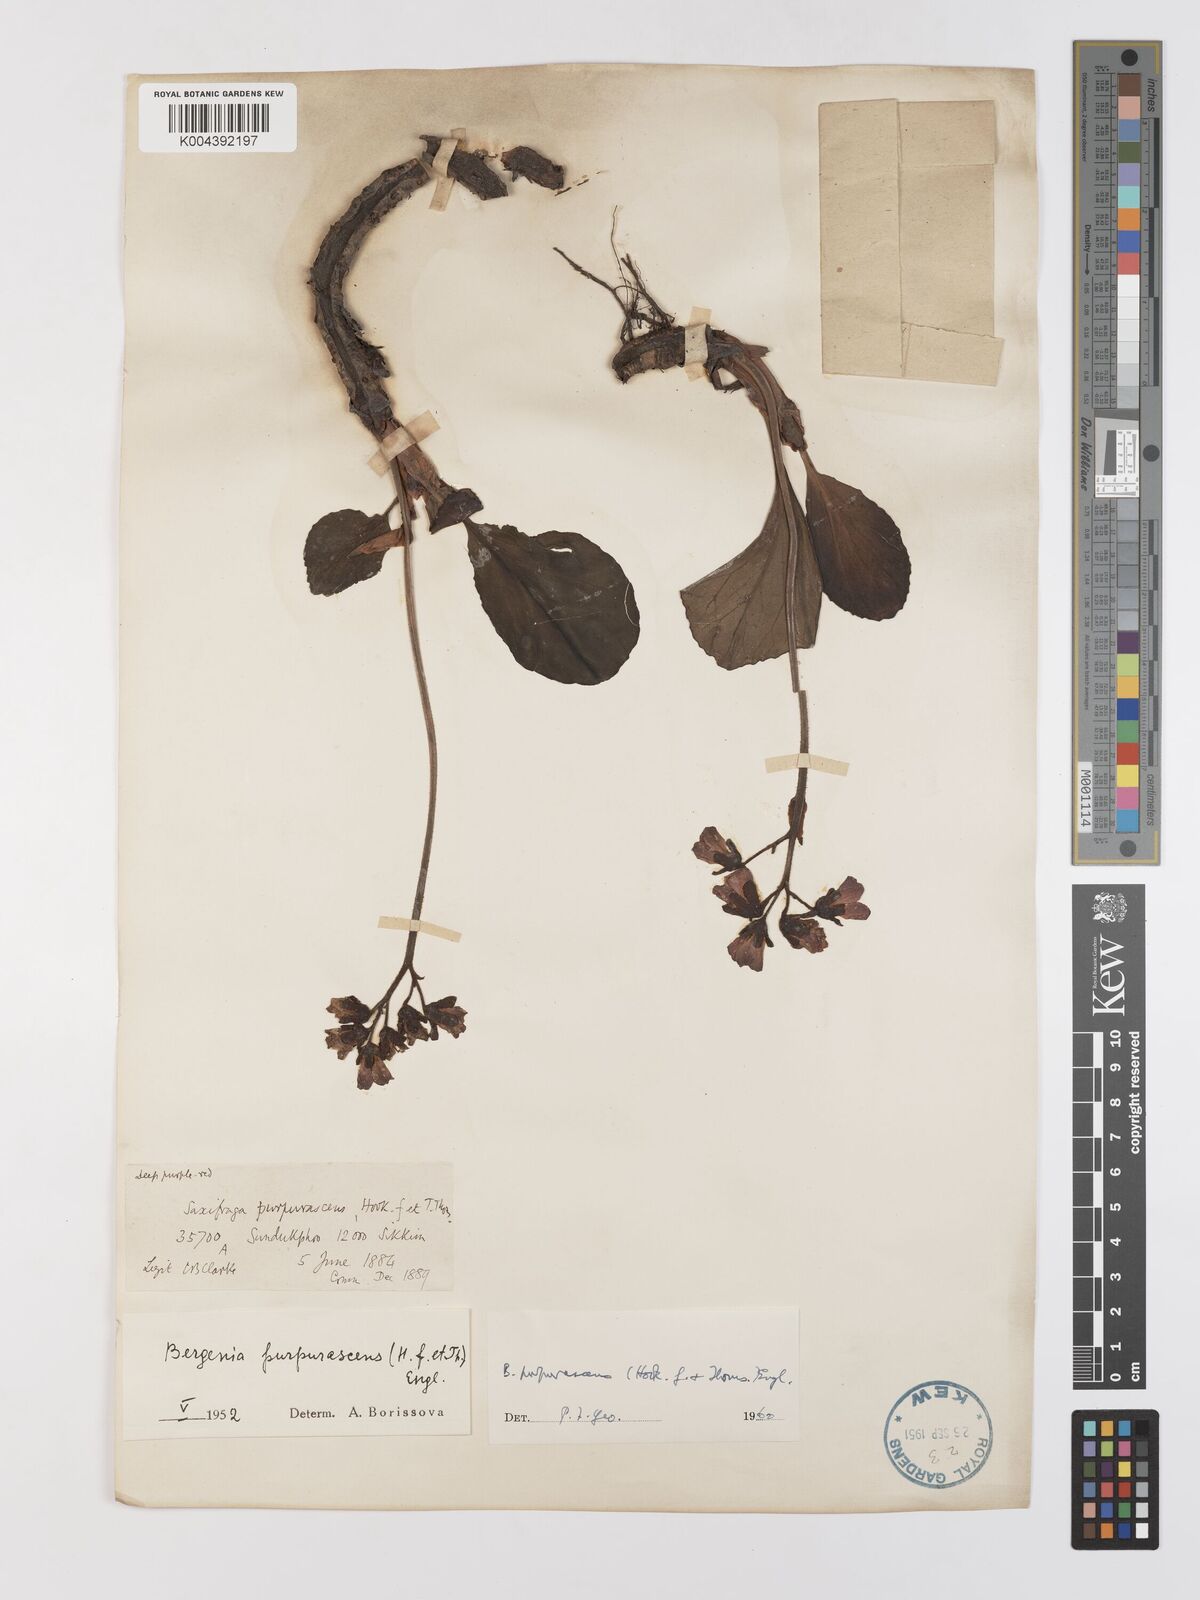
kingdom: Plantae
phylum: Tracheophyta
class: Magnoliopsida
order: Saxifragales
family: Saxifragaceae
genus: Bergenia
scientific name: Bergenia purpurascens
